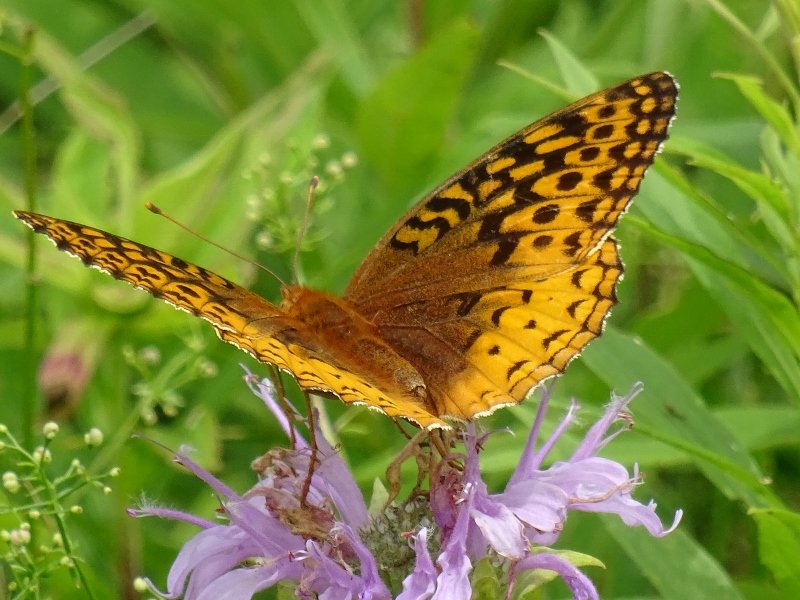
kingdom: Animalia
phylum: Arthropoda
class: Insecta
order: Lepidoptera
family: Nymphalidae
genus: Speyeria
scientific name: Speyeria cybele
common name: Great Spangled Fritillary
